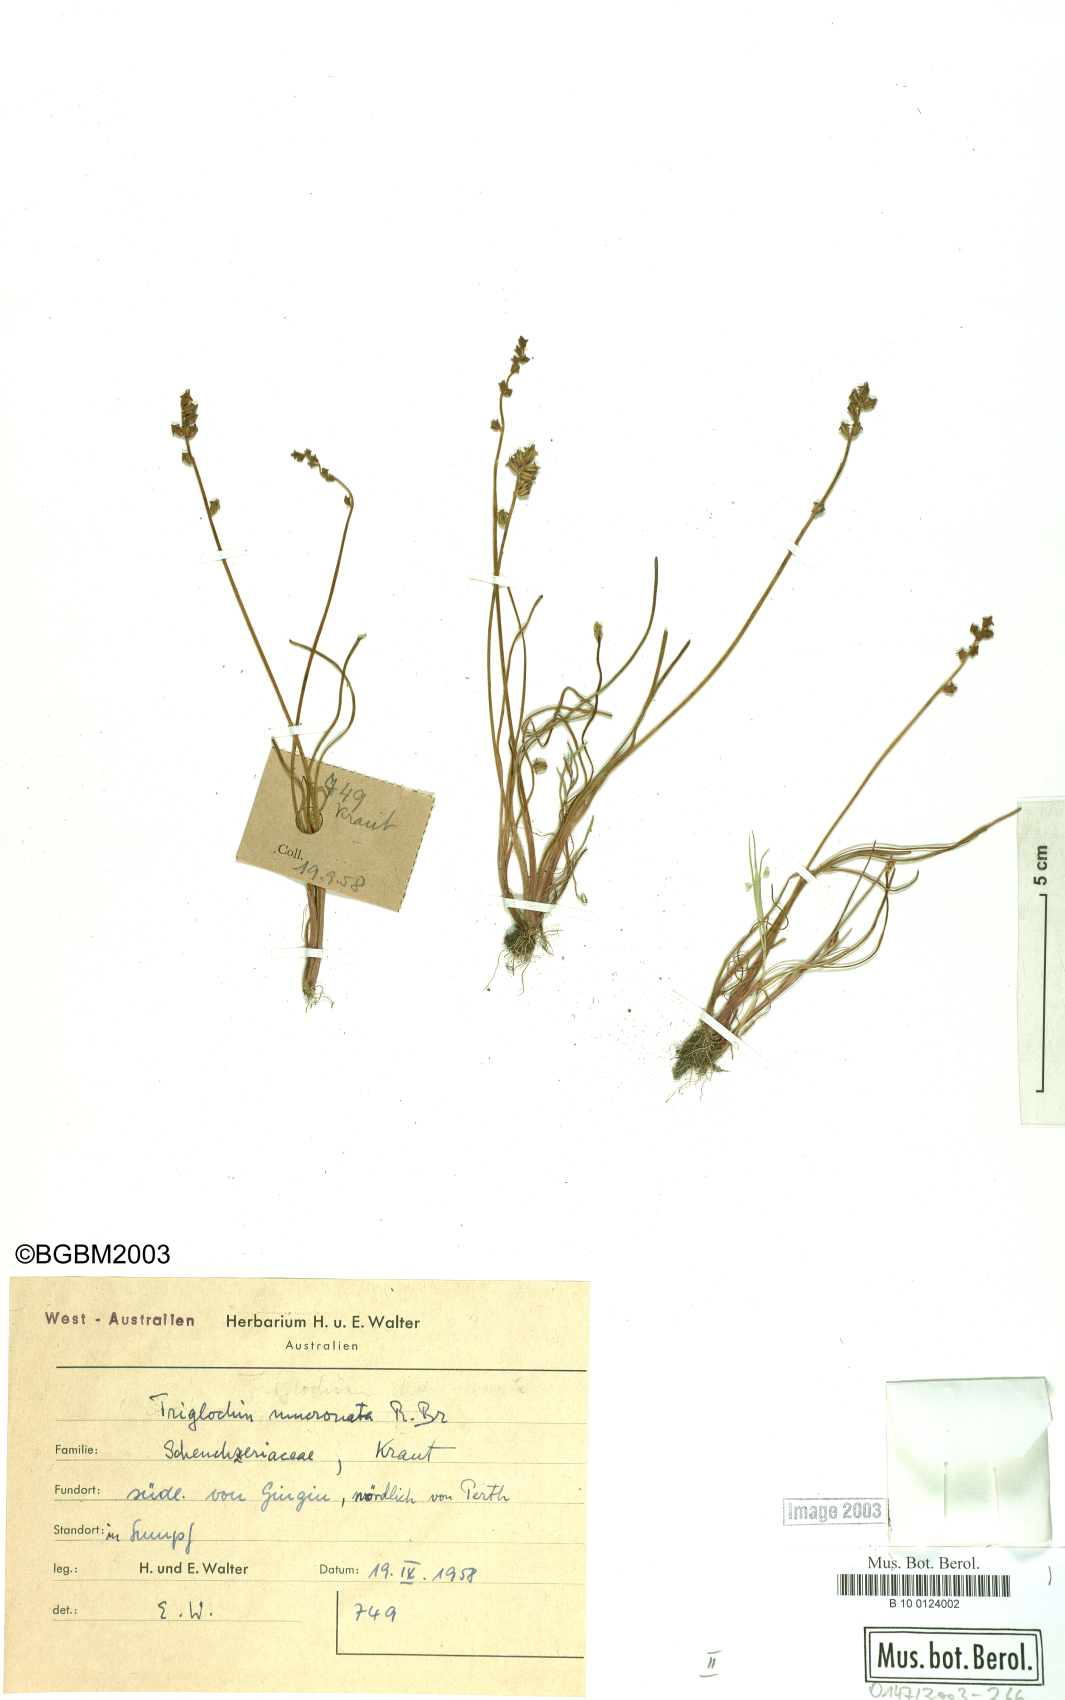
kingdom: Plantae
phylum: Tracheophyta
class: Liliopsida
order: Alismatales
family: Juncaginaceae
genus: Triglochin
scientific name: Triglochin mucronata
